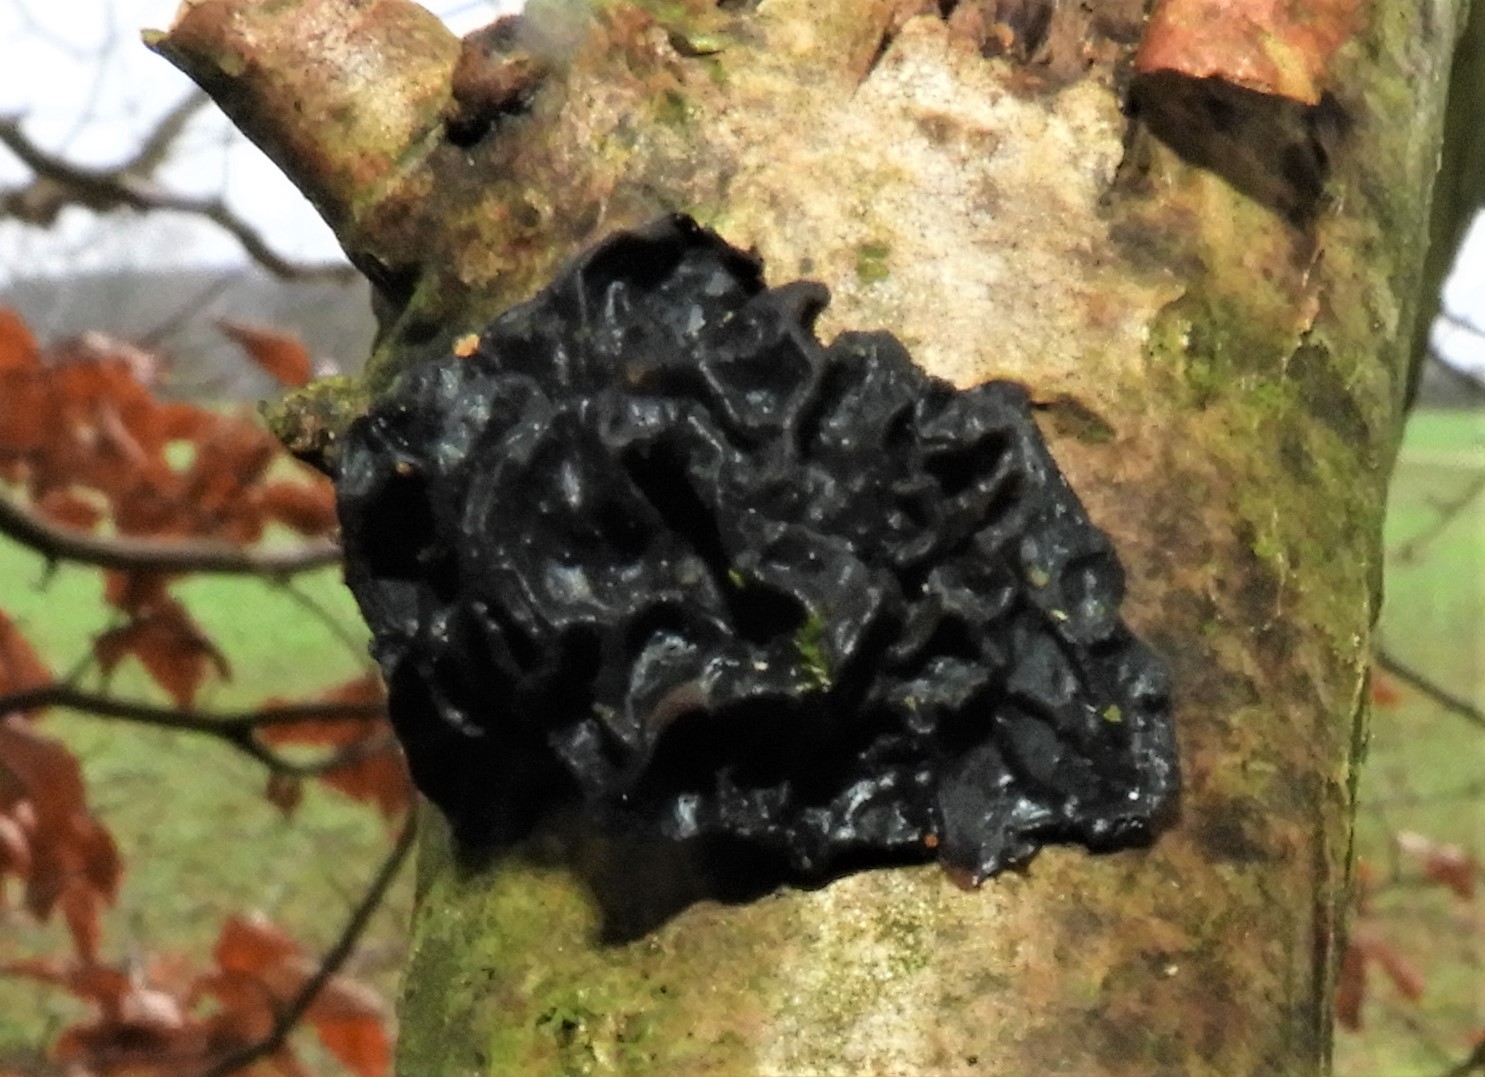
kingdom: Fungi
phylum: Basidiomycota
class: Agaricomycetes
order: Auriculariales
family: Auriculariaceae
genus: Exidia
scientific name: Exidia glandulosa
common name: ege-bævretop
